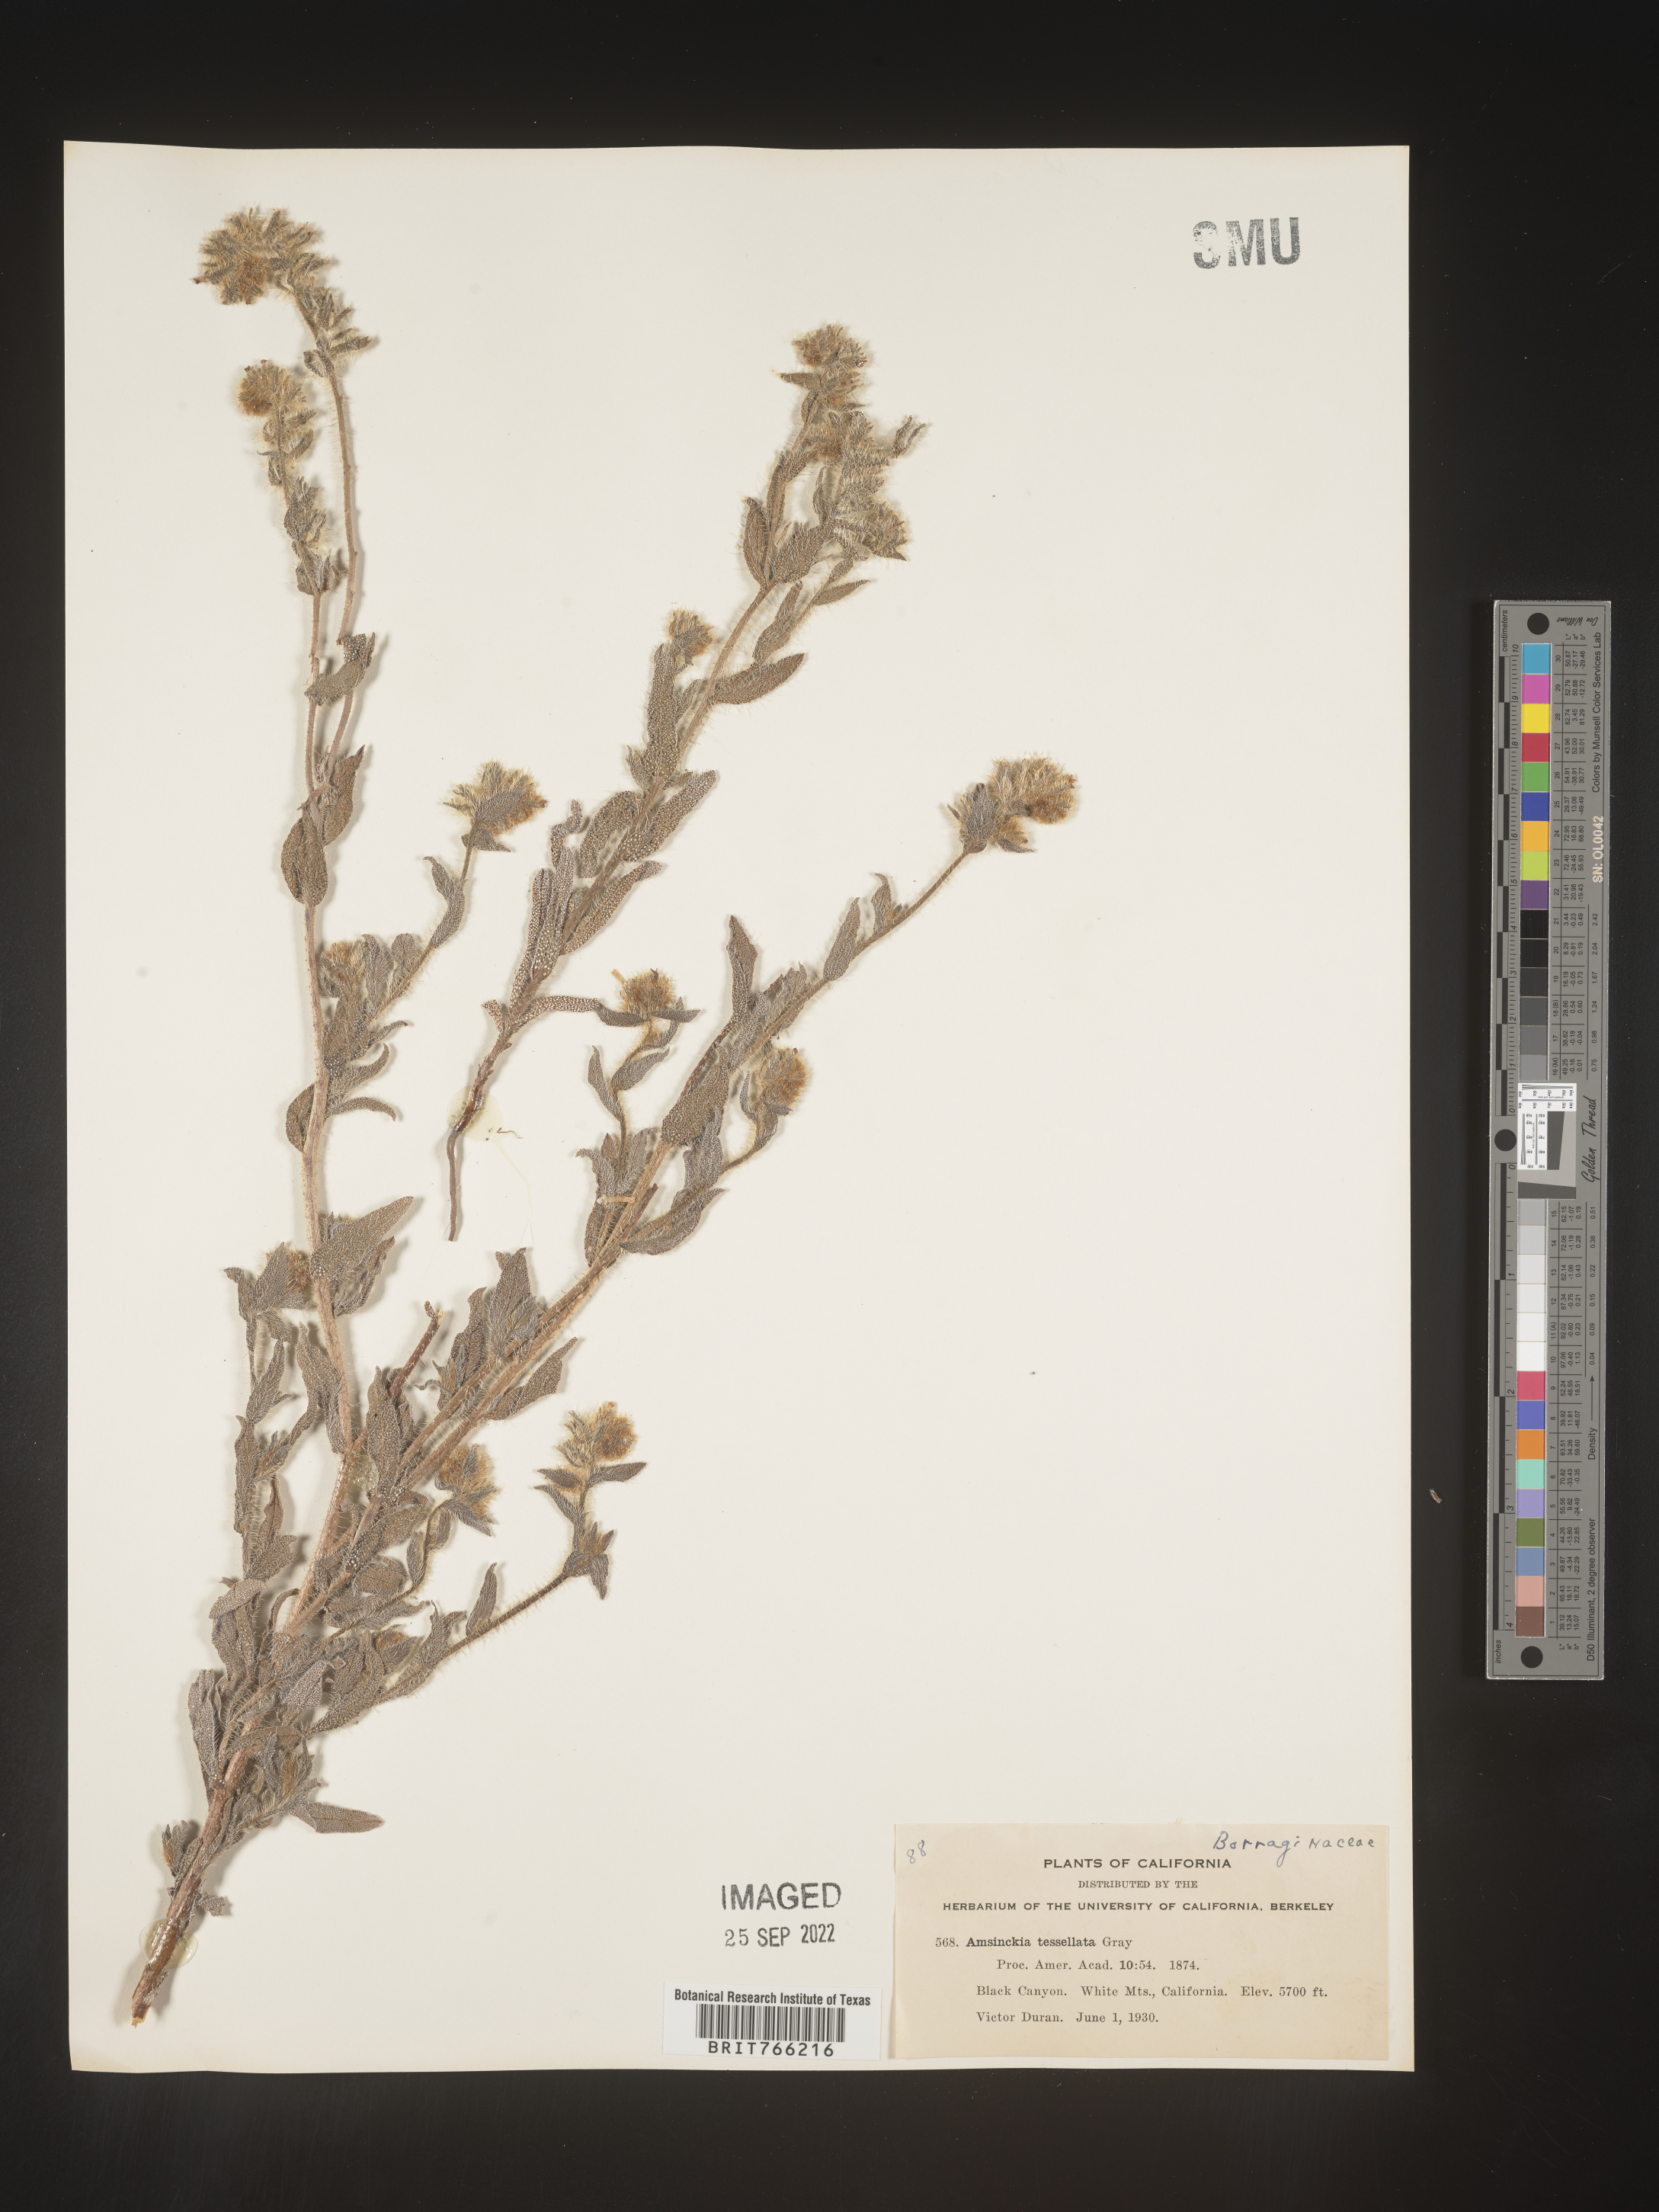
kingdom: Plantae
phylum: Tracheophyta
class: Magnoliopsida
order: Boraginales
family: Boraginaceae
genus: Amsinckia
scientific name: Amsinckia tessellata
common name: Tessellate fiddleneck
